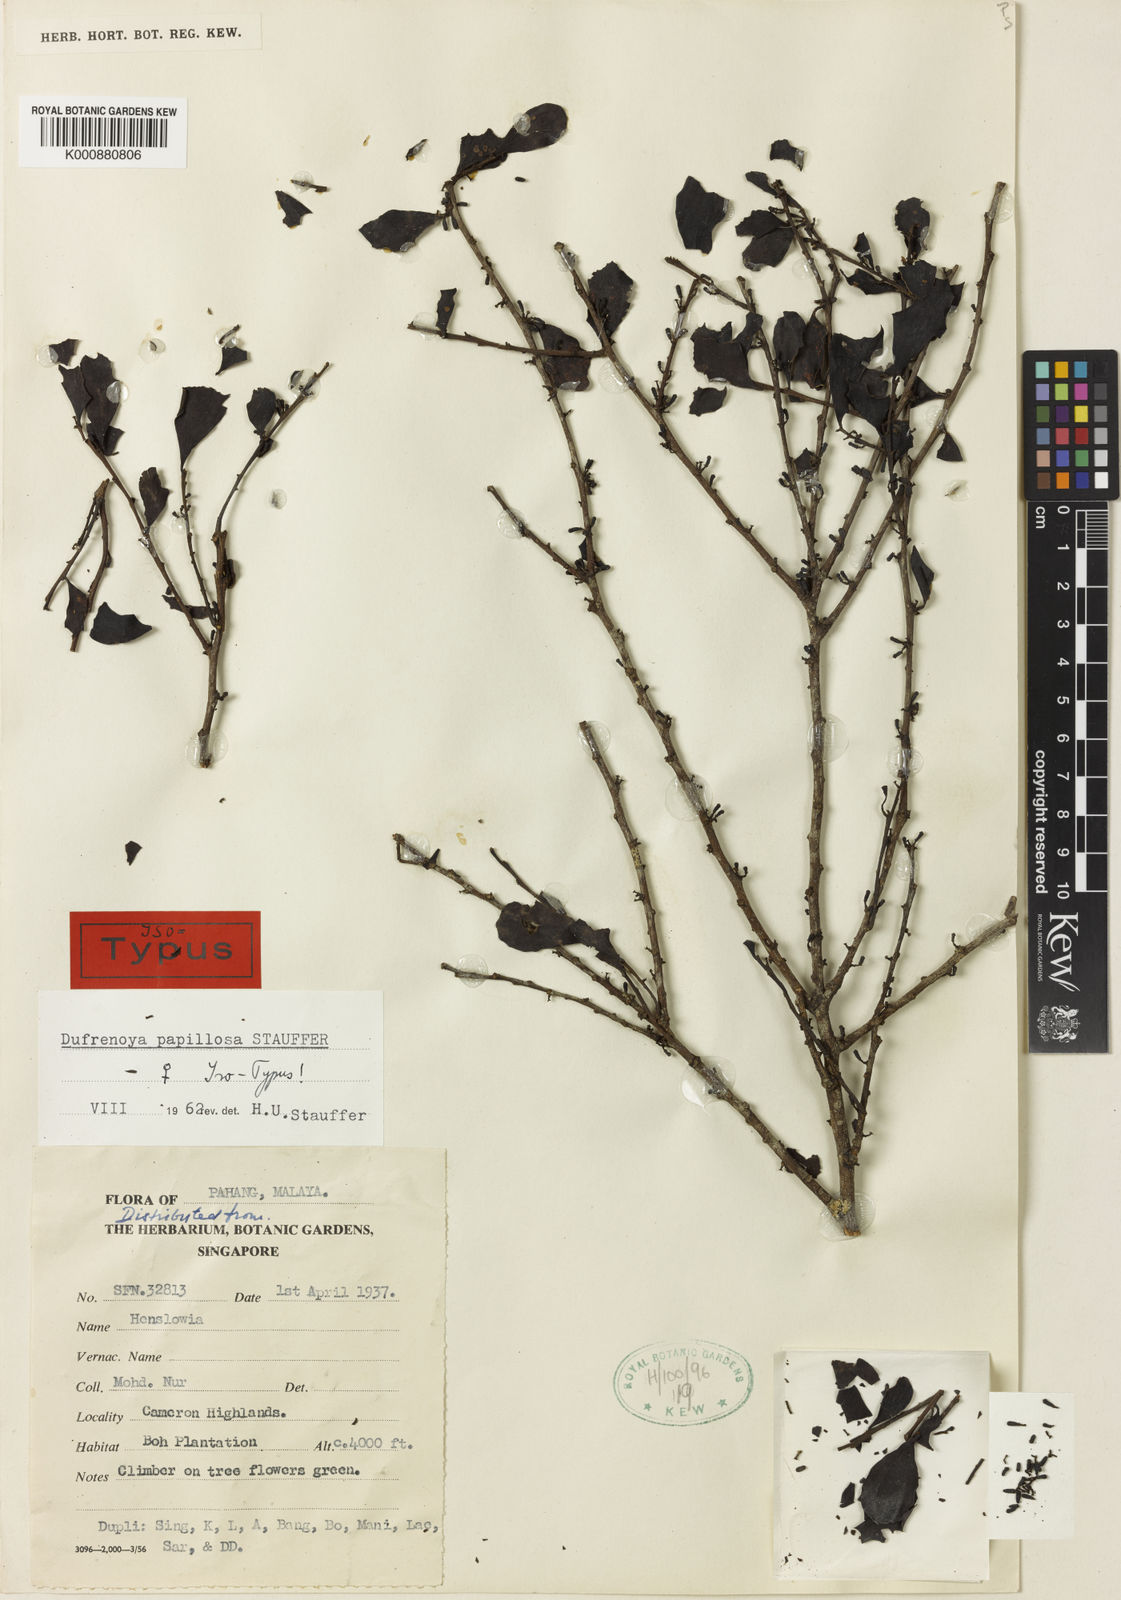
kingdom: Plantae
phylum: Tracheophyta
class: Magnoliopsida
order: Santalales
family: Amphorogynaceae
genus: Dufrenoya
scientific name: Dufrenoya papillosa
